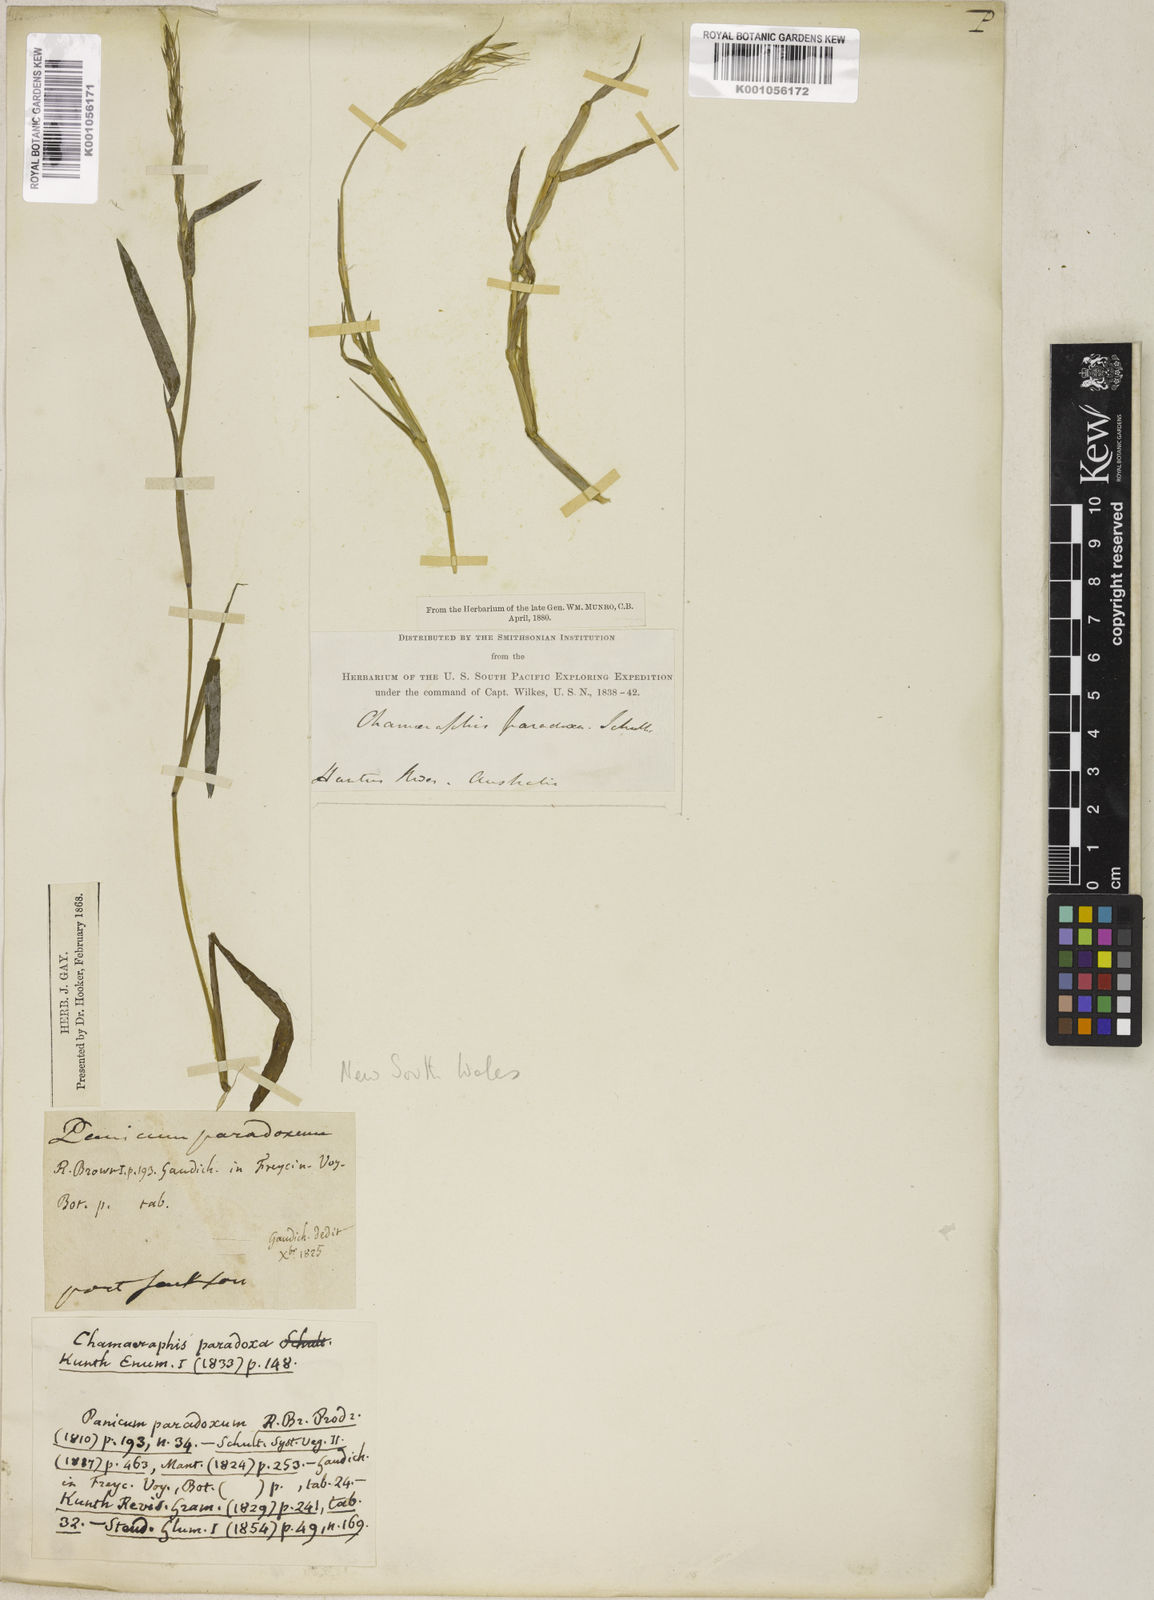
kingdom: Plantae
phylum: Tracheophyta
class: Liliopsida
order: Poales
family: Poaceae
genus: Pseudoraphis
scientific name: Pseudoraphis paradoxa
